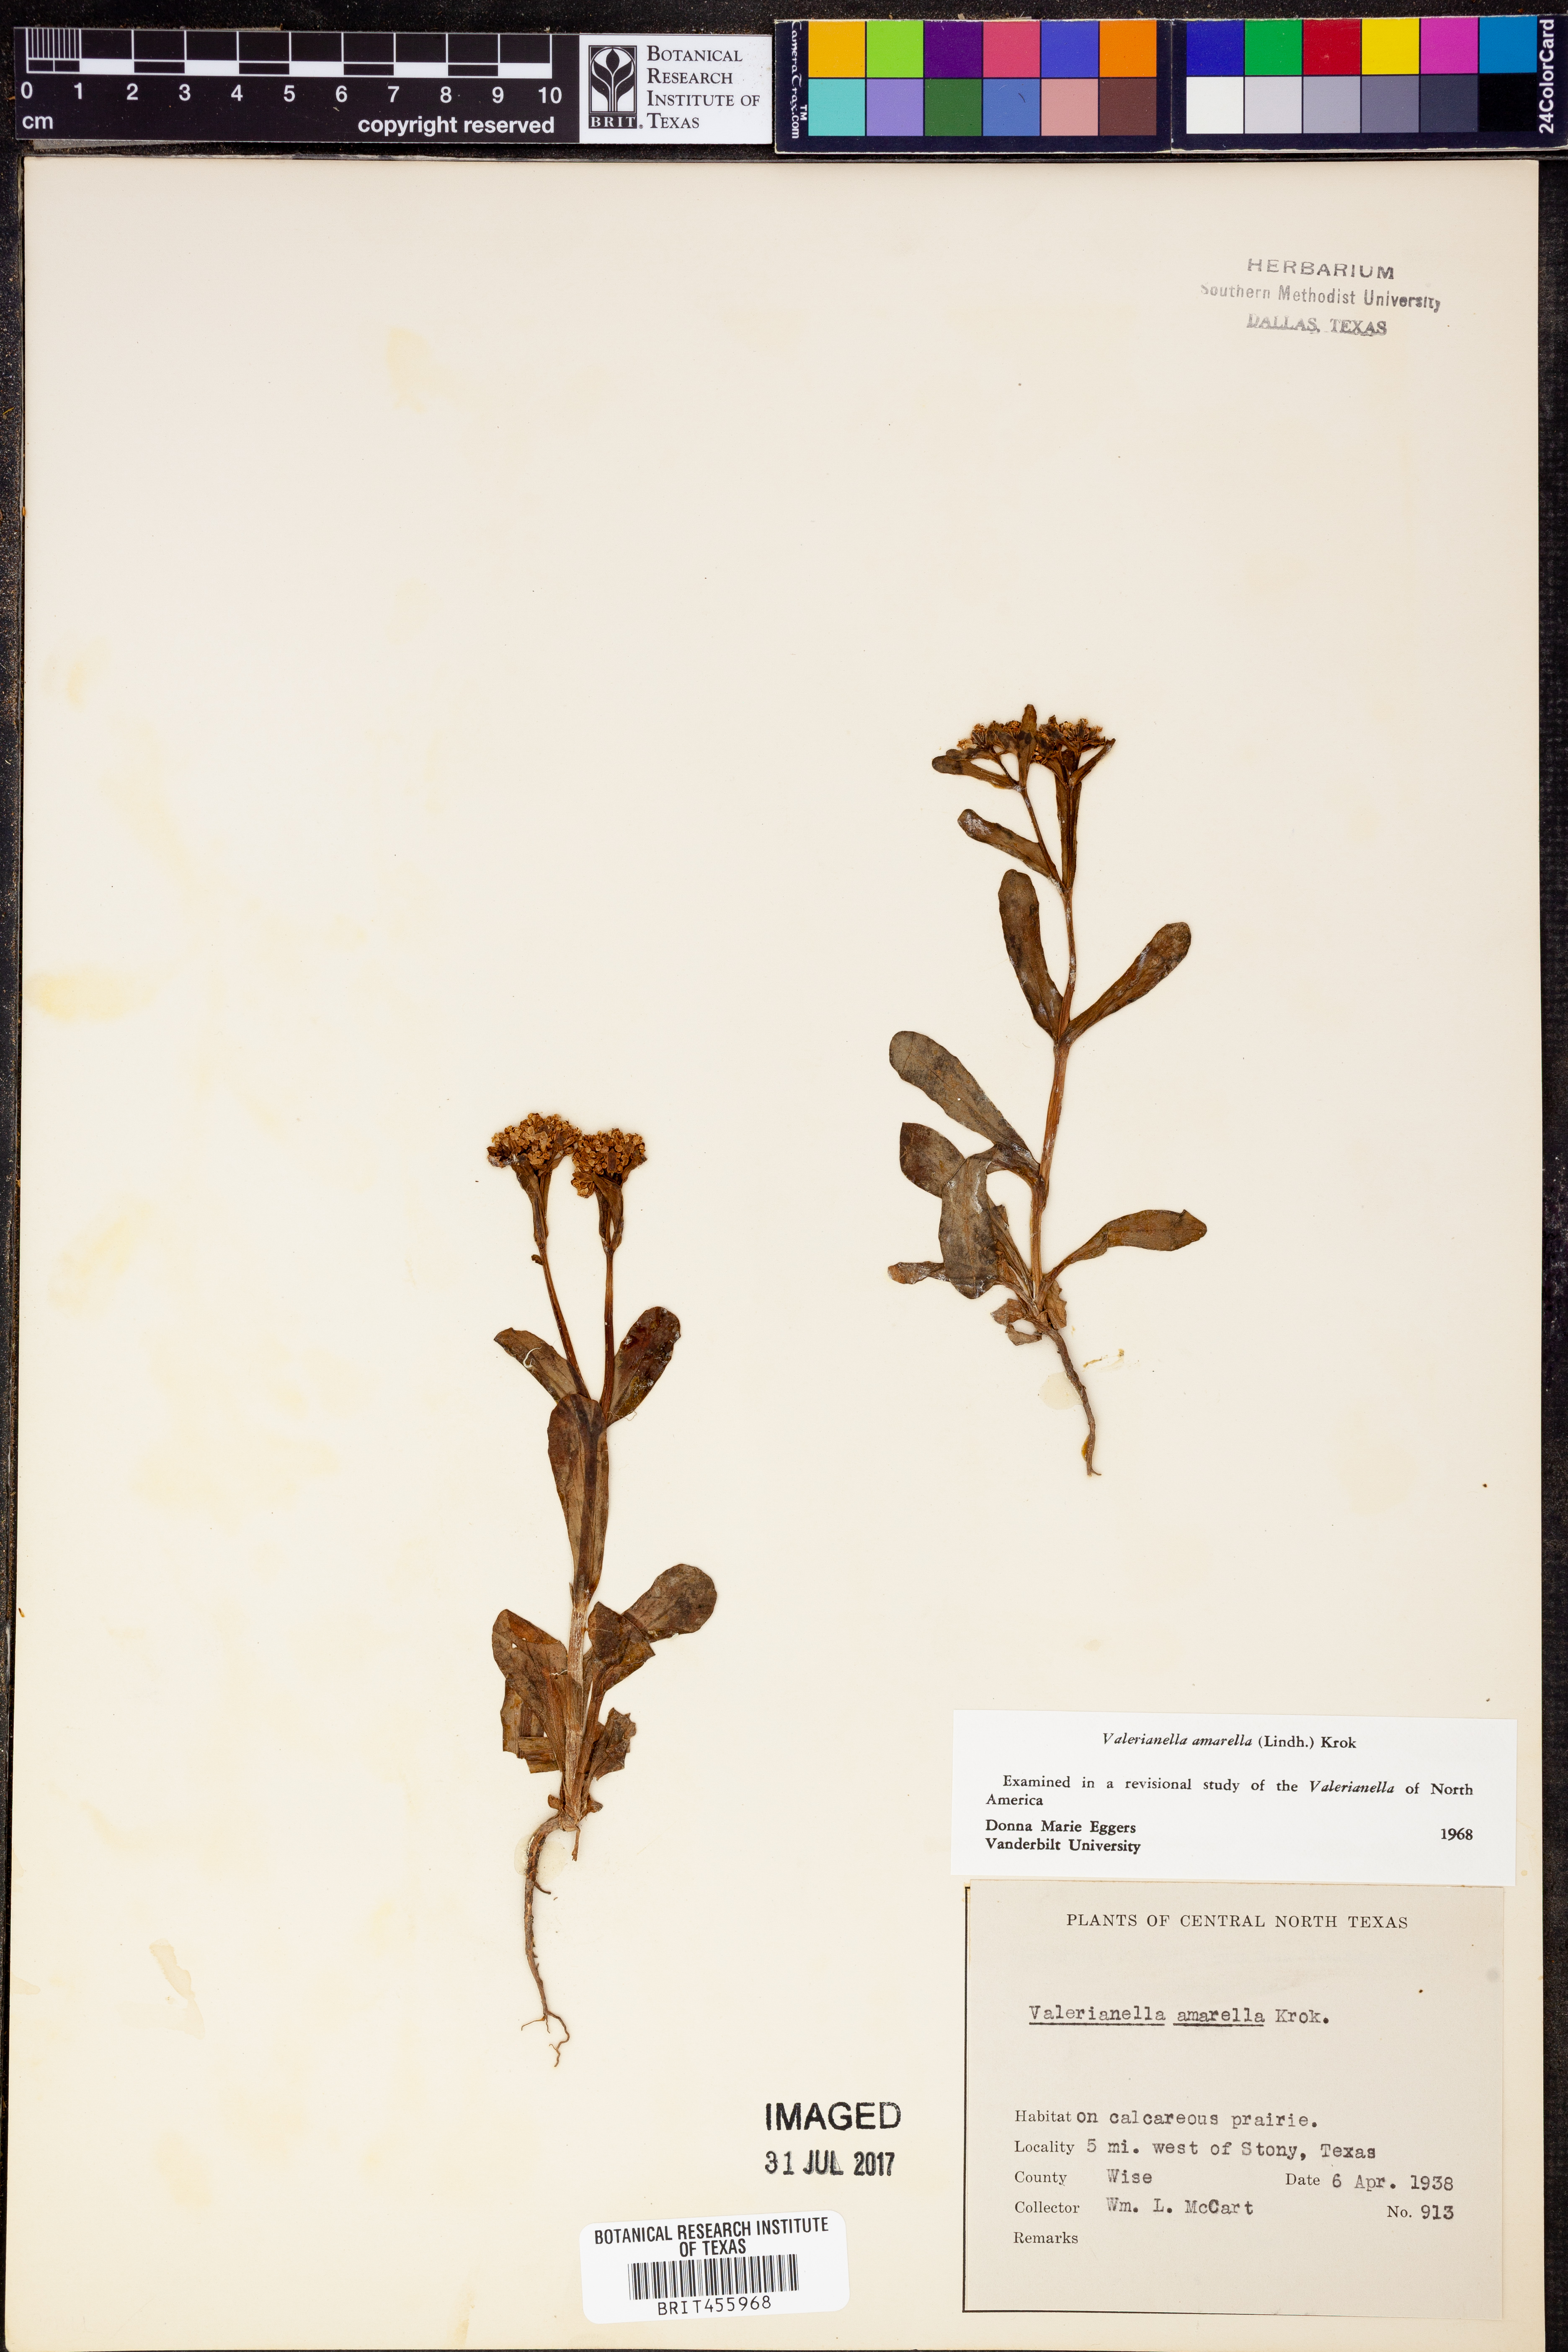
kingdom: Plantae
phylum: Tracheophyta
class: Magnoliopsida
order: Dipsacales
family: Caprifoliaceae
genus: Valerianella
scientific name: Valerianella amarella
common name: Hariy cornsalad
